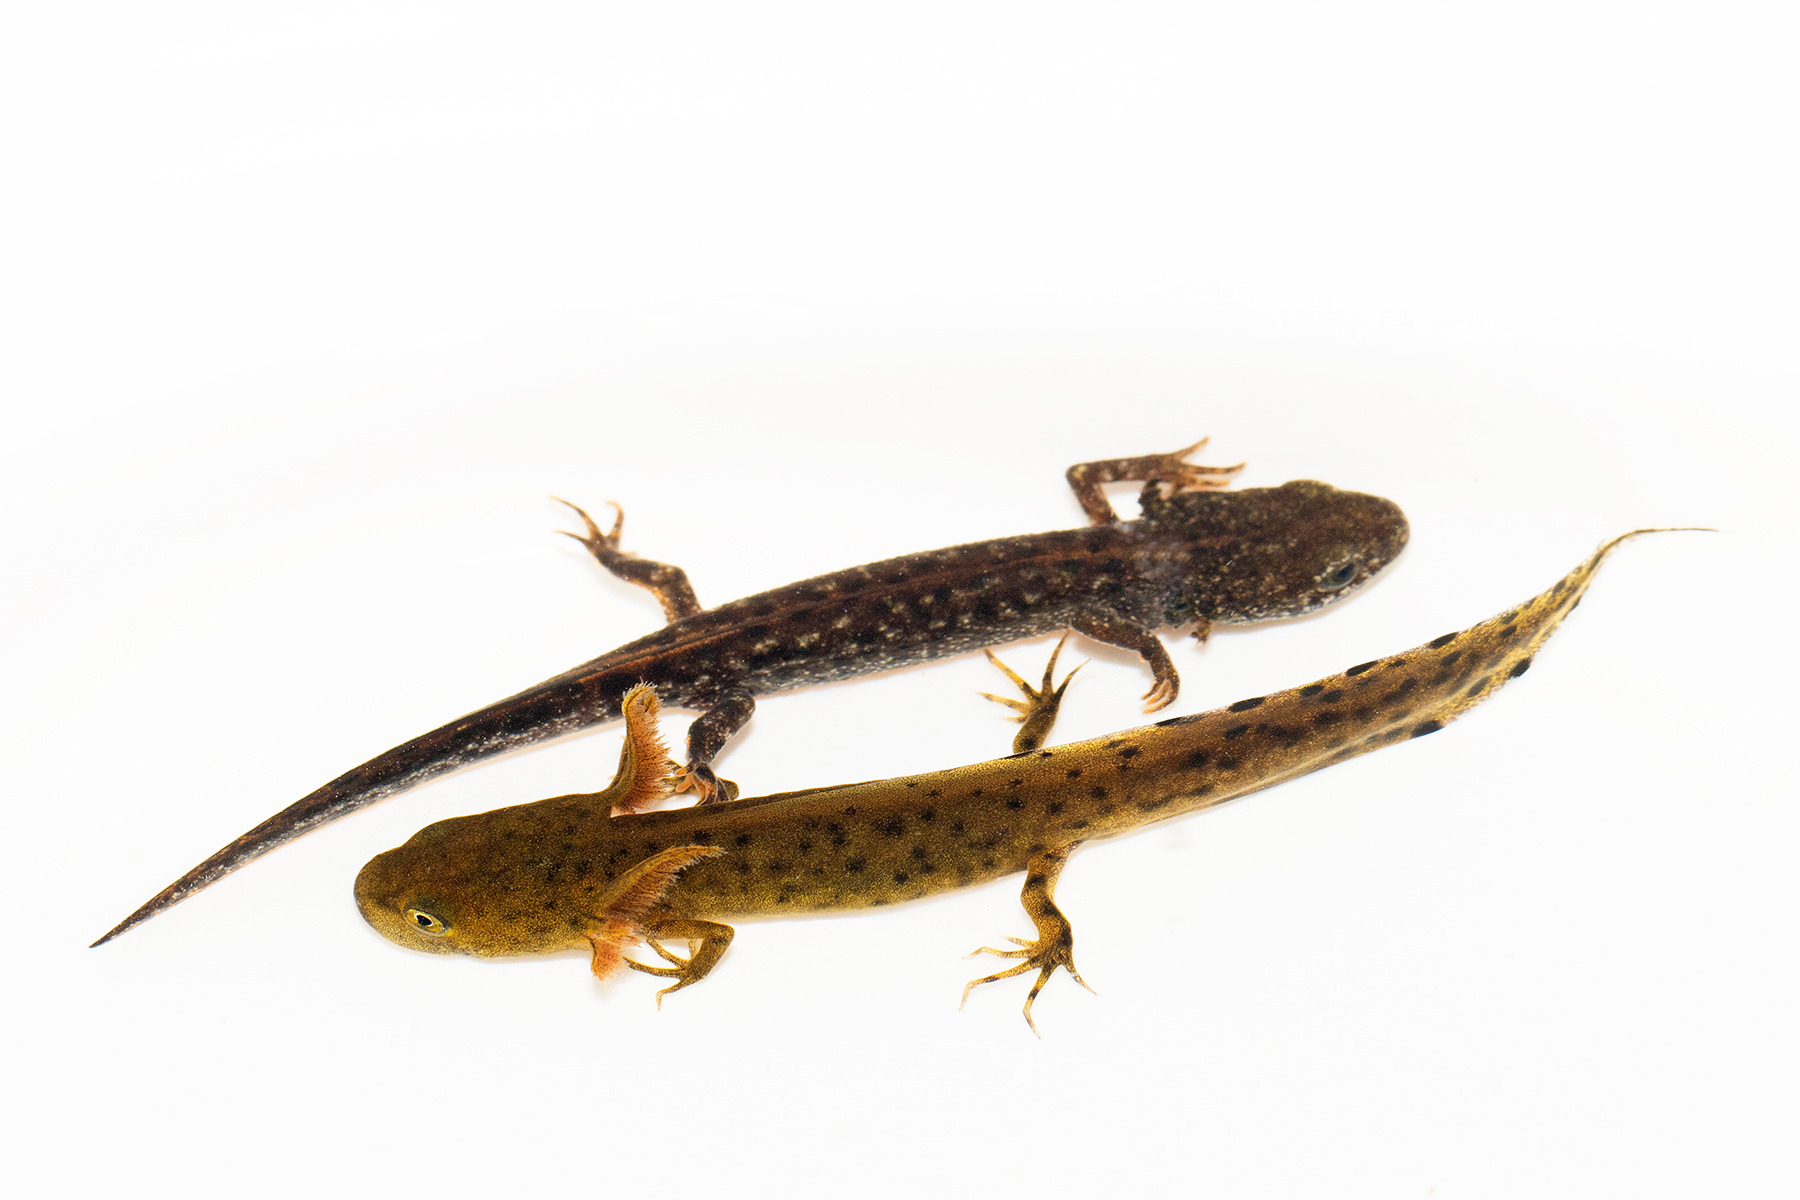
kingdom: Animalia
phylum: Chordata
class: Amphibia
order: Caudata
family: Salamandridae
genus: Triturus
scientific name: Triturus cristatus
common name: Stor vandsalamander
